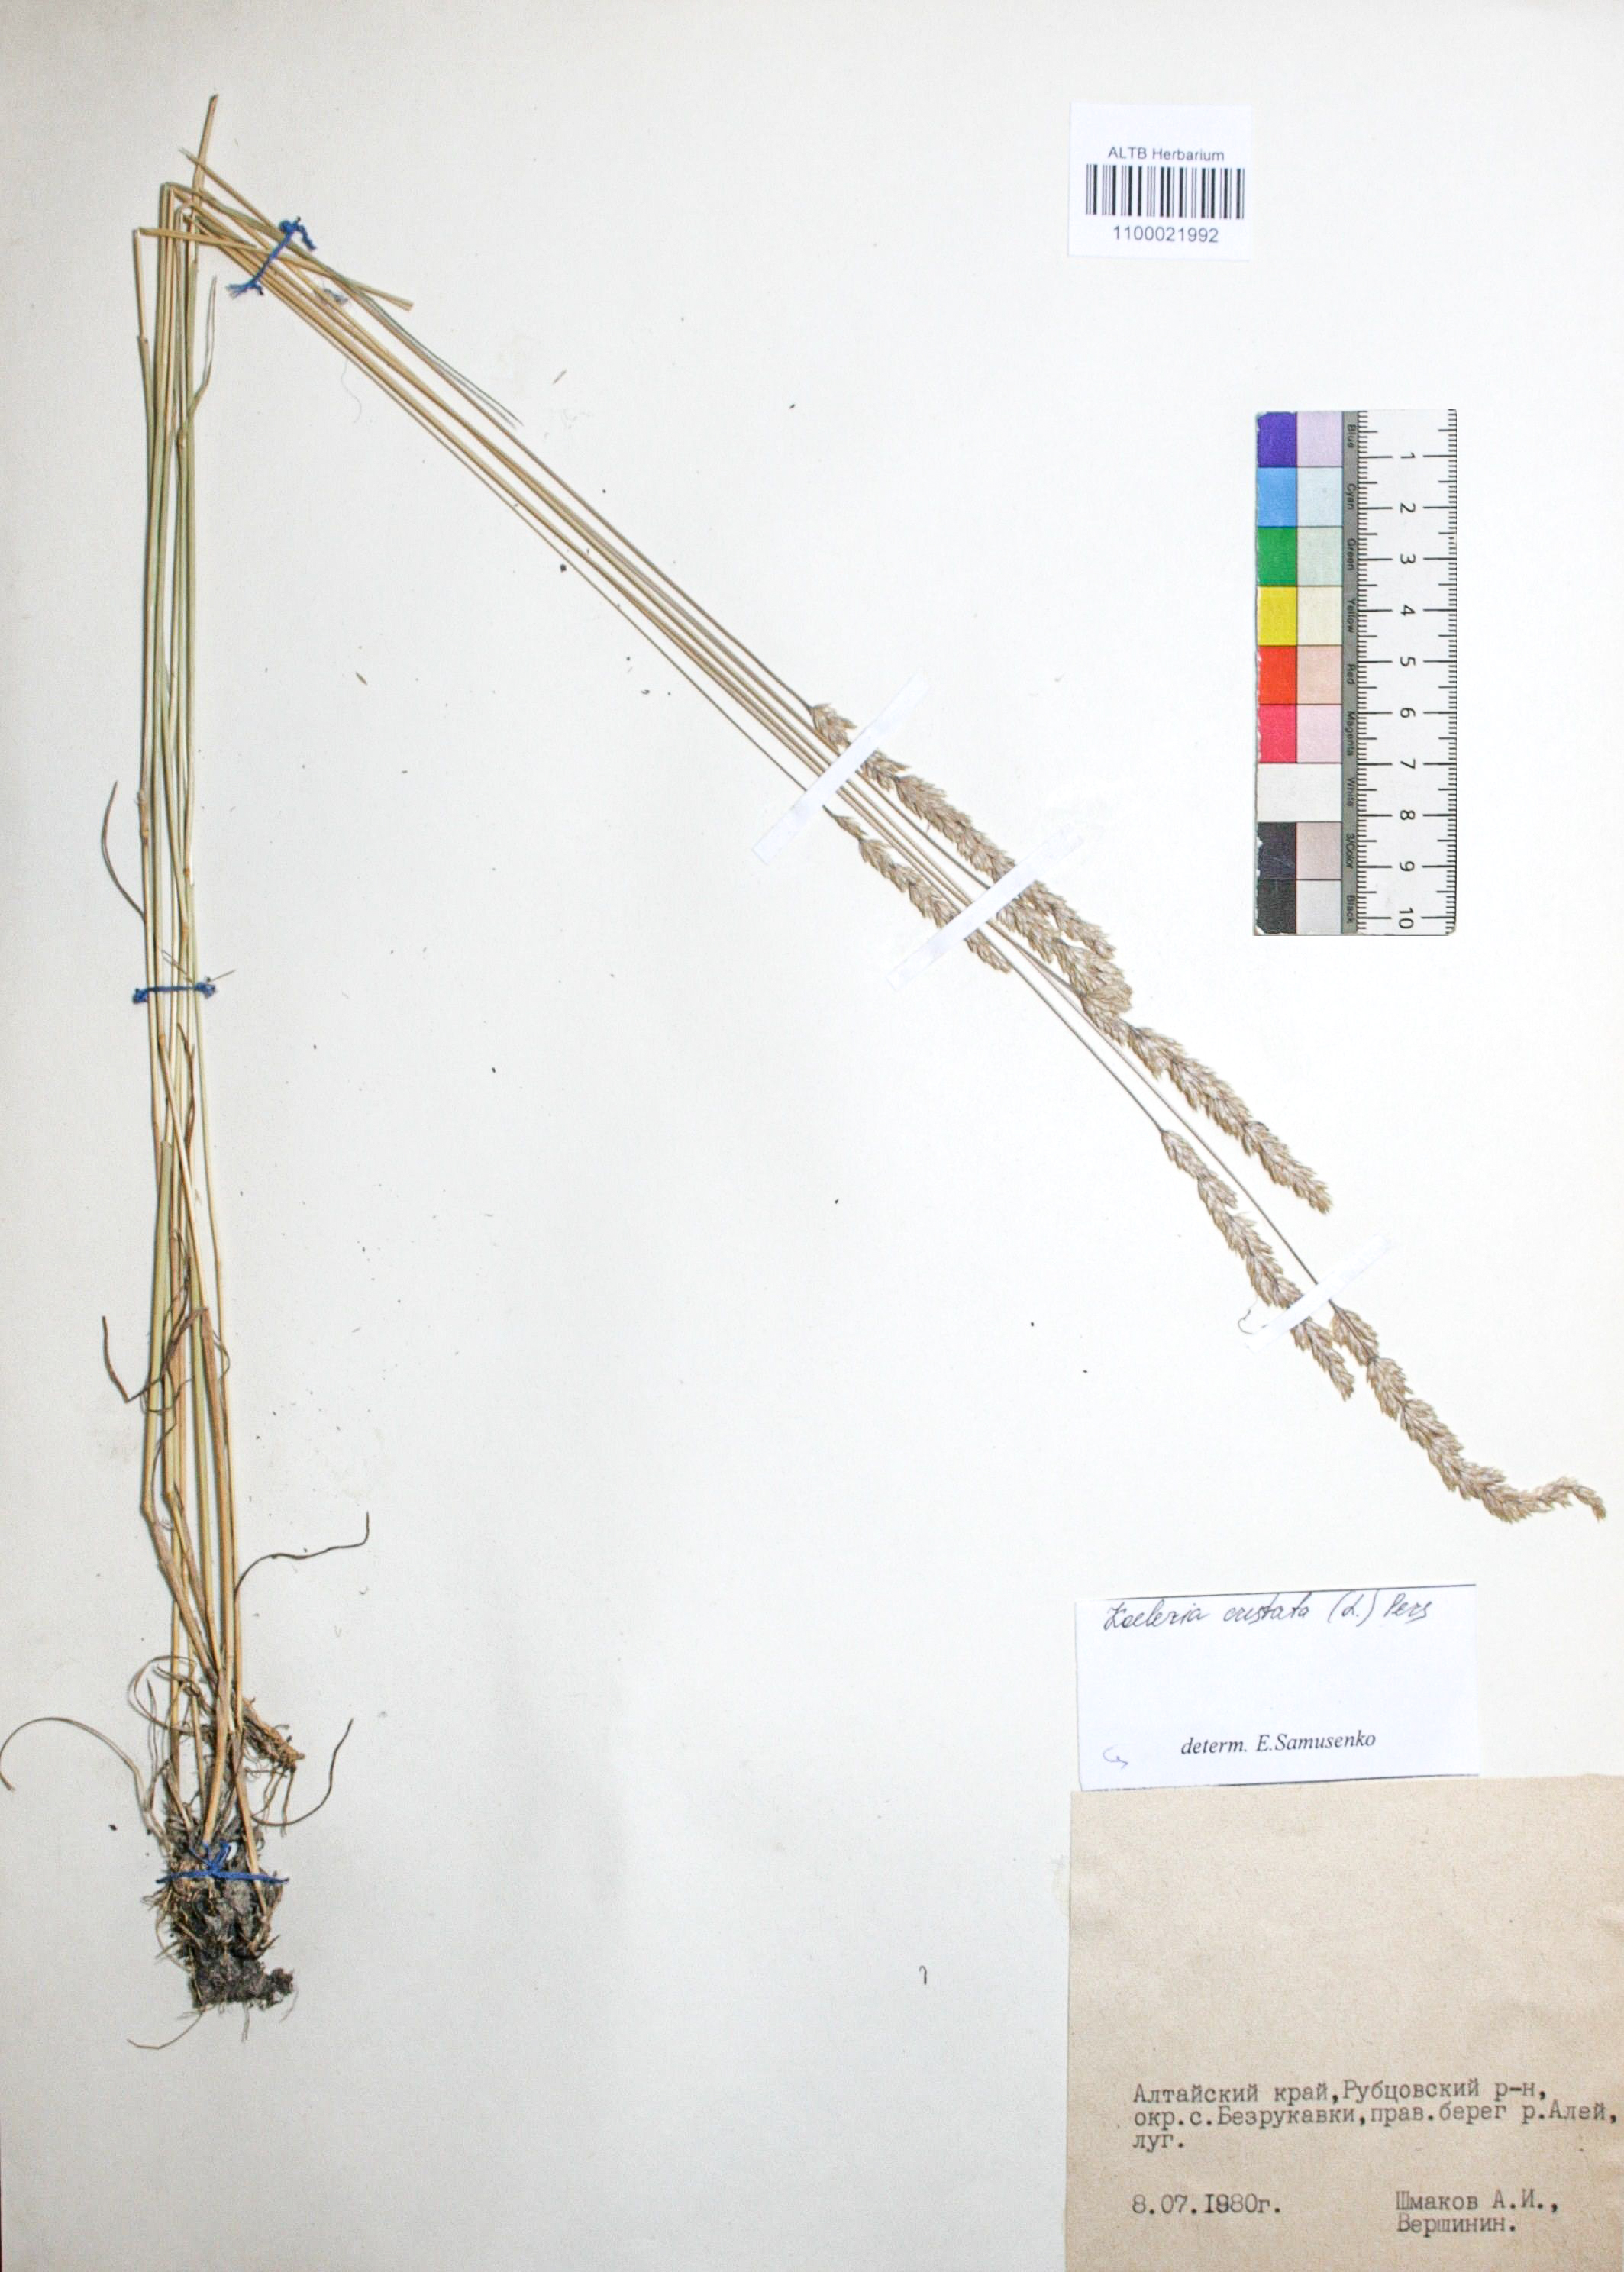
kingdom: Plantae
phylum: Tracheophyta
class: Liliopsida
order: Poales
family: Poaceae
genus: Koeleria
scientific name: Koeleria pyramidata
